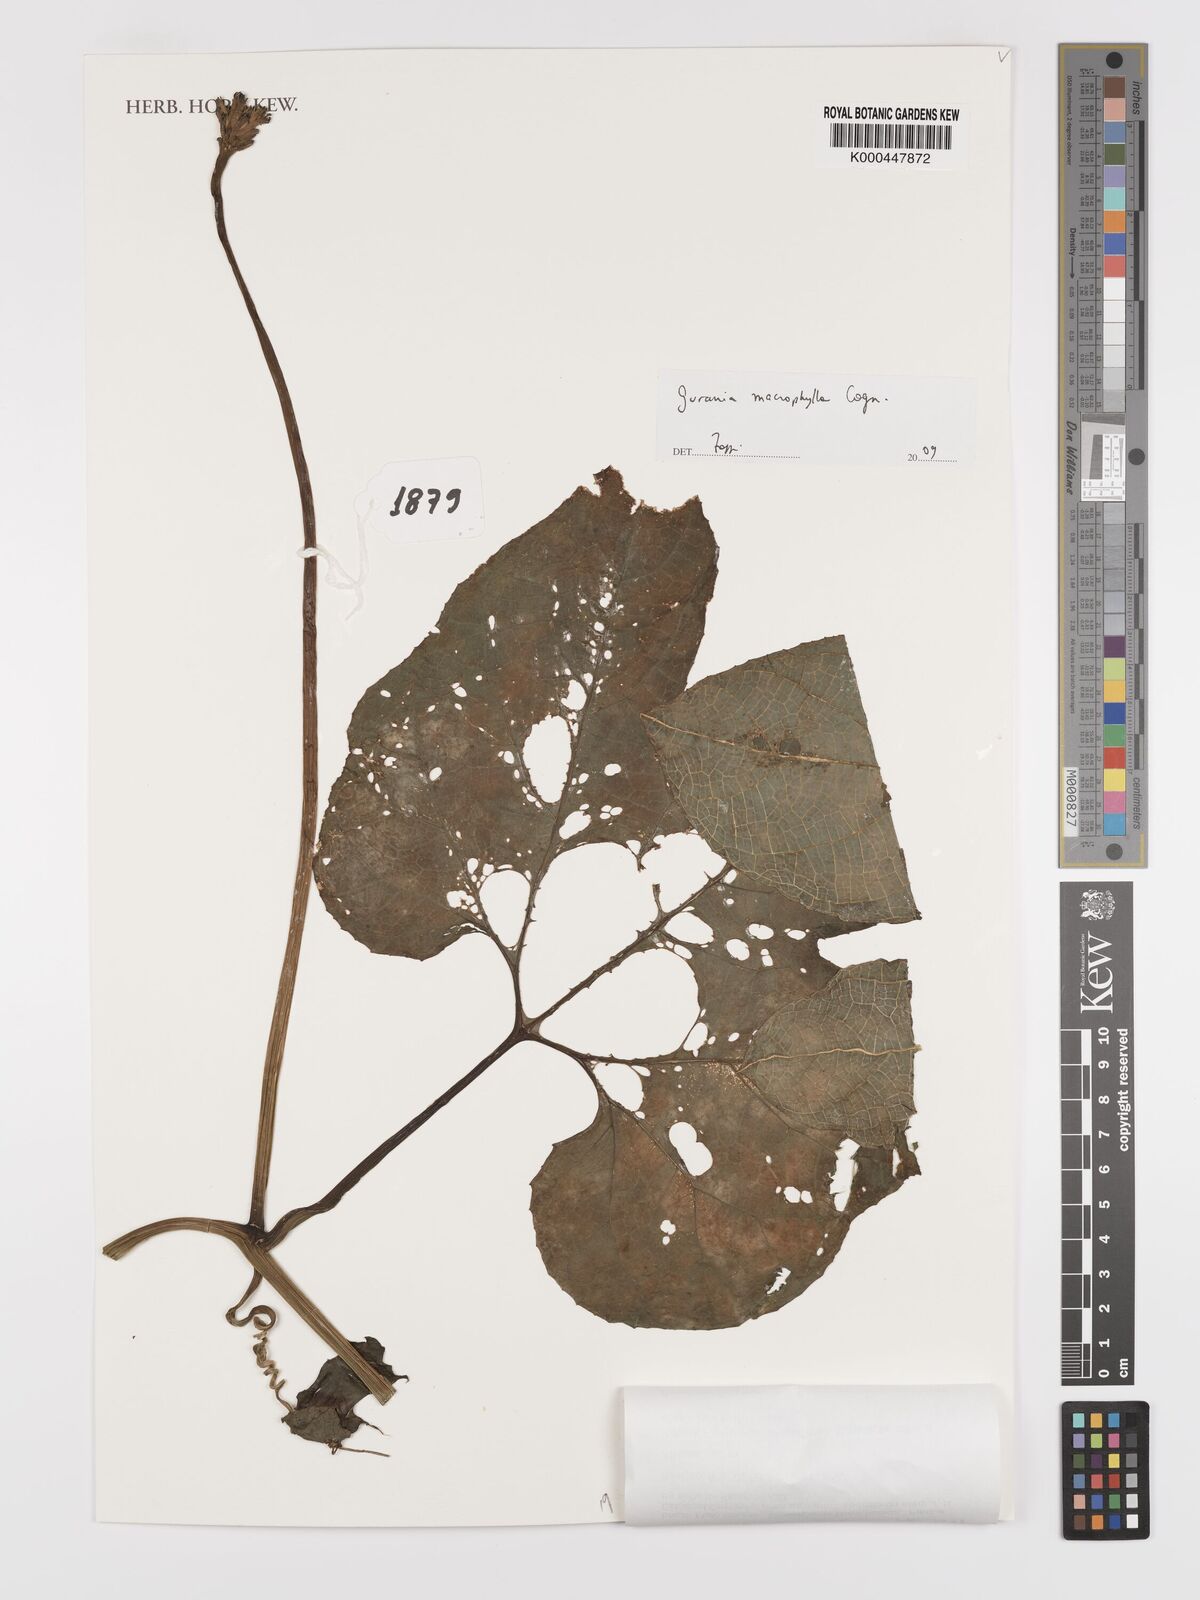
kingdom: Plantae
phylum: Tracheophyta
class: Magnoliopsida
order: Cucurbitales
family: Cucurbitaceae
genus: Gurania
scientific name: Gurania lobata
